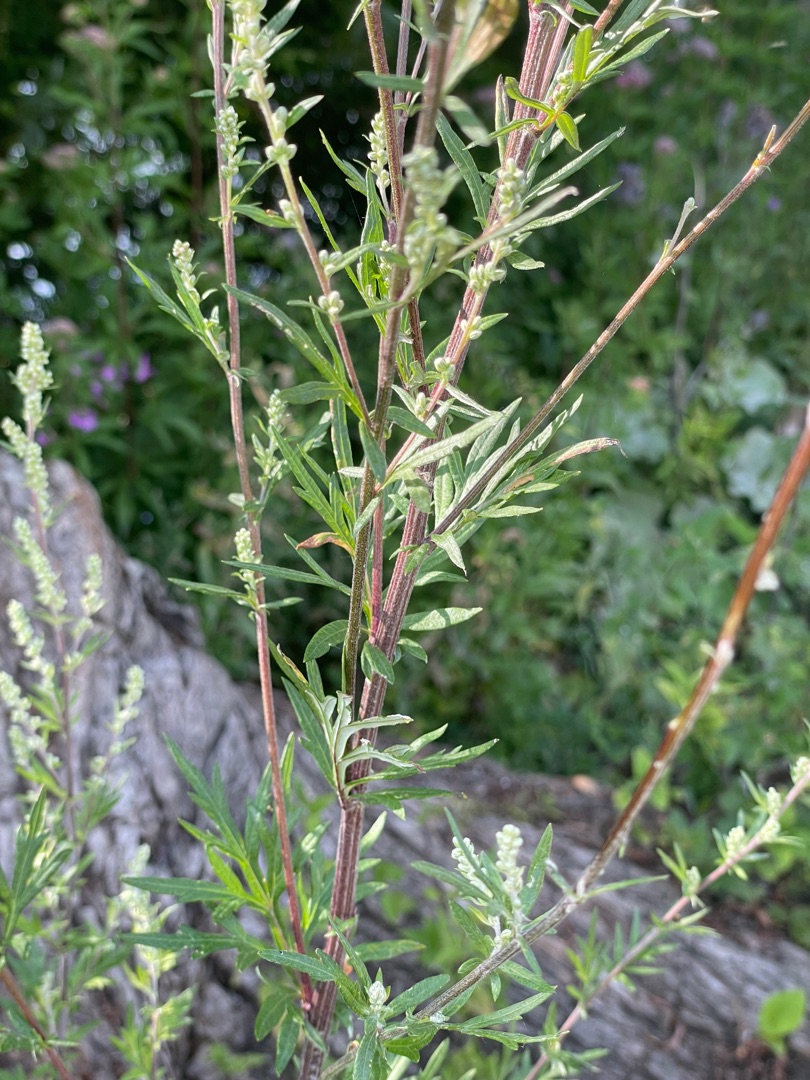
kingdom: Plantae
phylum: Tracheophyta
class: Magnoliopsida
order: Asterales
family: Asteraceae
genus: Artemisia
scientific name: Artemisia vulgaris
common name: Grå-bynke
